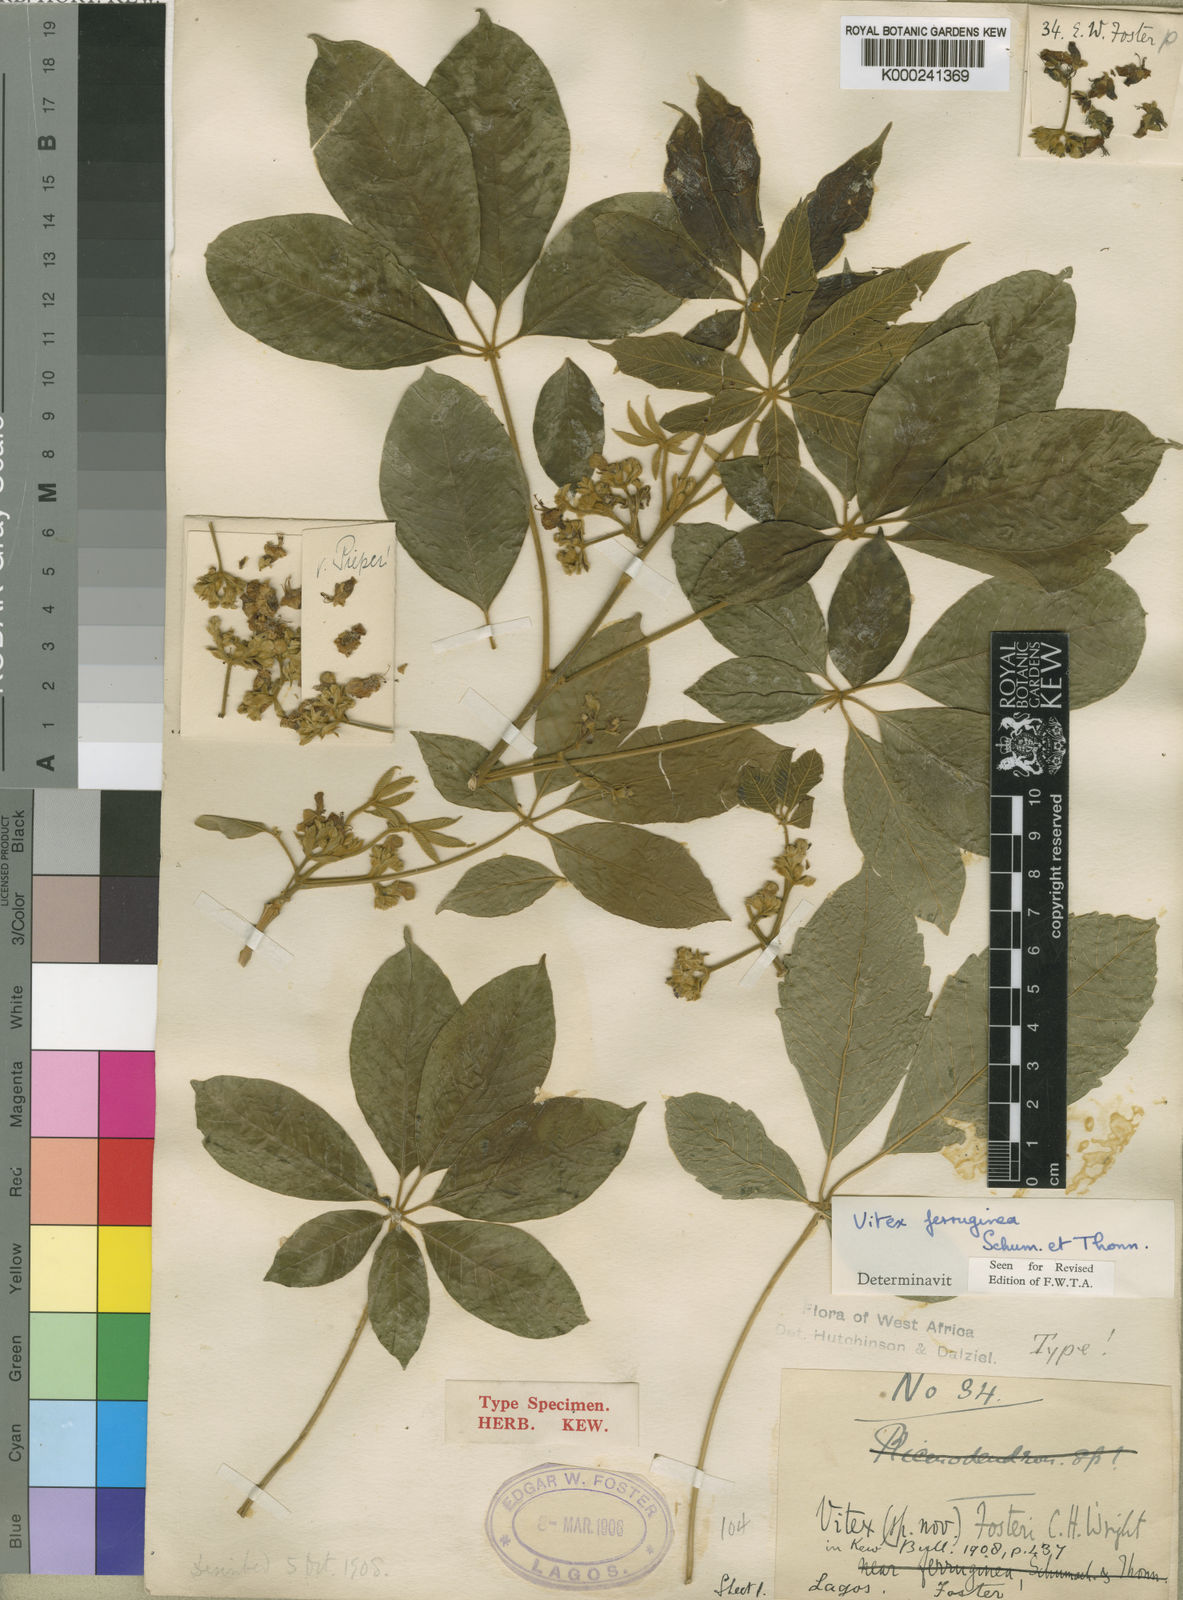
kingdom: Plantae
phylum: Tracheophyta
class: Magnoliopsida
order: Lamiales
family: Lamiaceae
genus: Vitex
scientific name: Vitex ferruginea
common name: Plum fingerleaf
